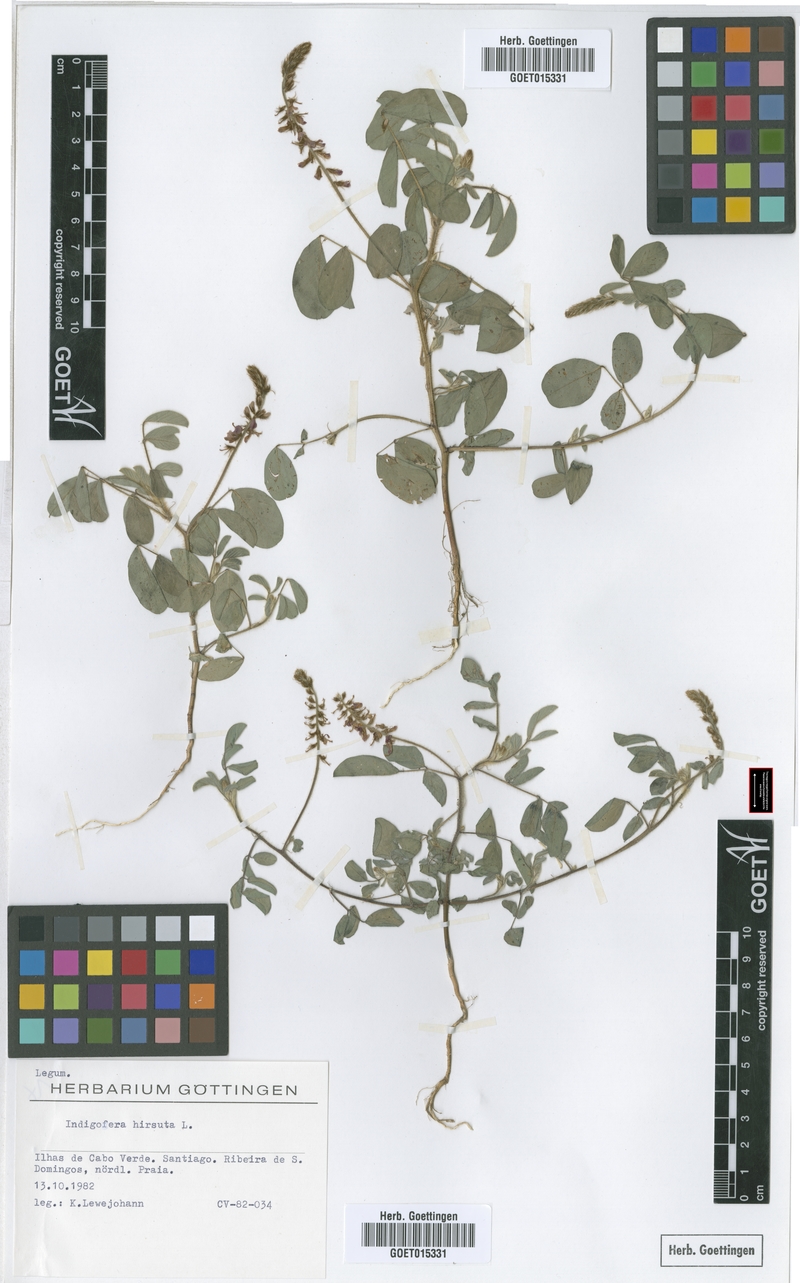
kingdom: Plantae
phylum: Tracheophyta
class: Magnoliopsida
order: Fabales
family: Fabaceae
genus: Indigofera
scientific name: Indigofera hirsuta
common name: Hairy indigo
